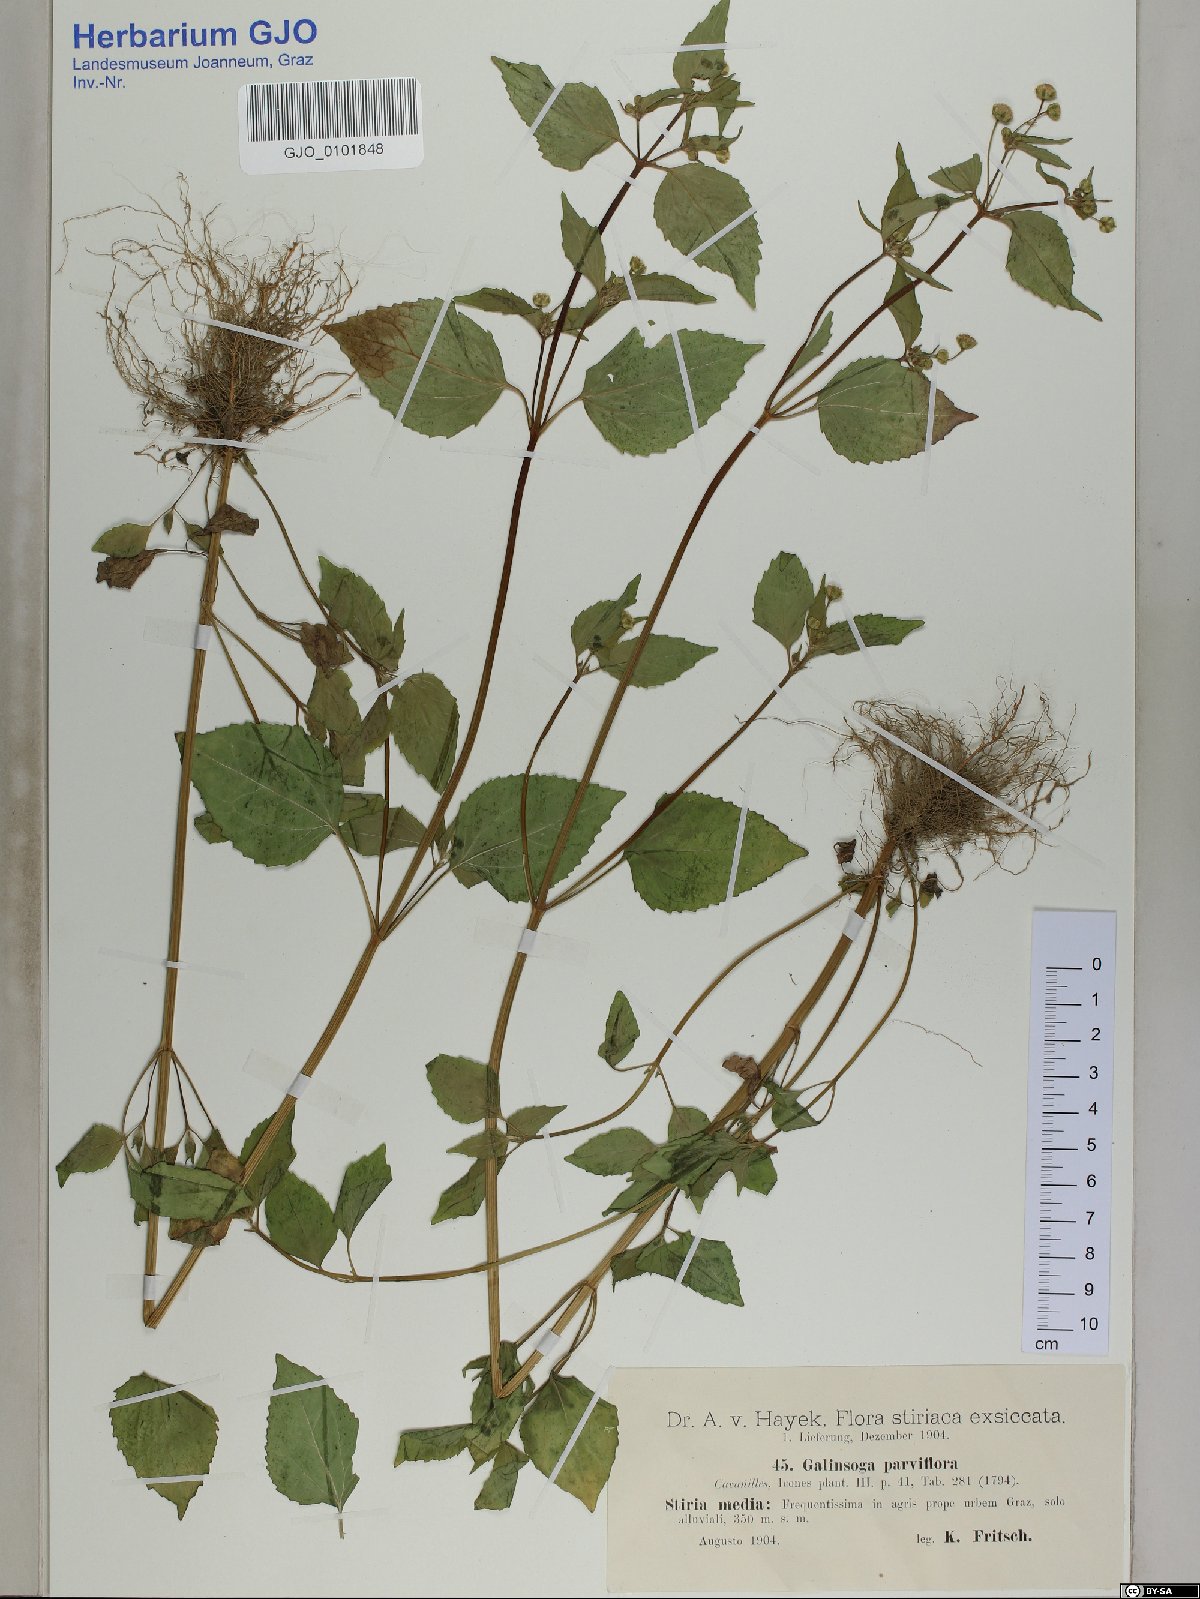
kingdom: Plantae
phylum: Tracheophyta
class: Magnoliopsida
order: Asterales
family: Asteraceae
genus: Galinsoga
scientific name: Galinsoga parviflora
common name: Gallant soldier
